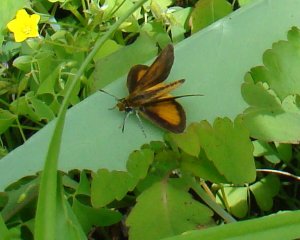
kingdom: Animalia
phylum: Arthropoda
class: Insecta
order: Lepidoptera
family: Hesperiidae
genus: Ancyloxypha
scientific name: Ancyloxypha numitor
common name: Least Skipper
